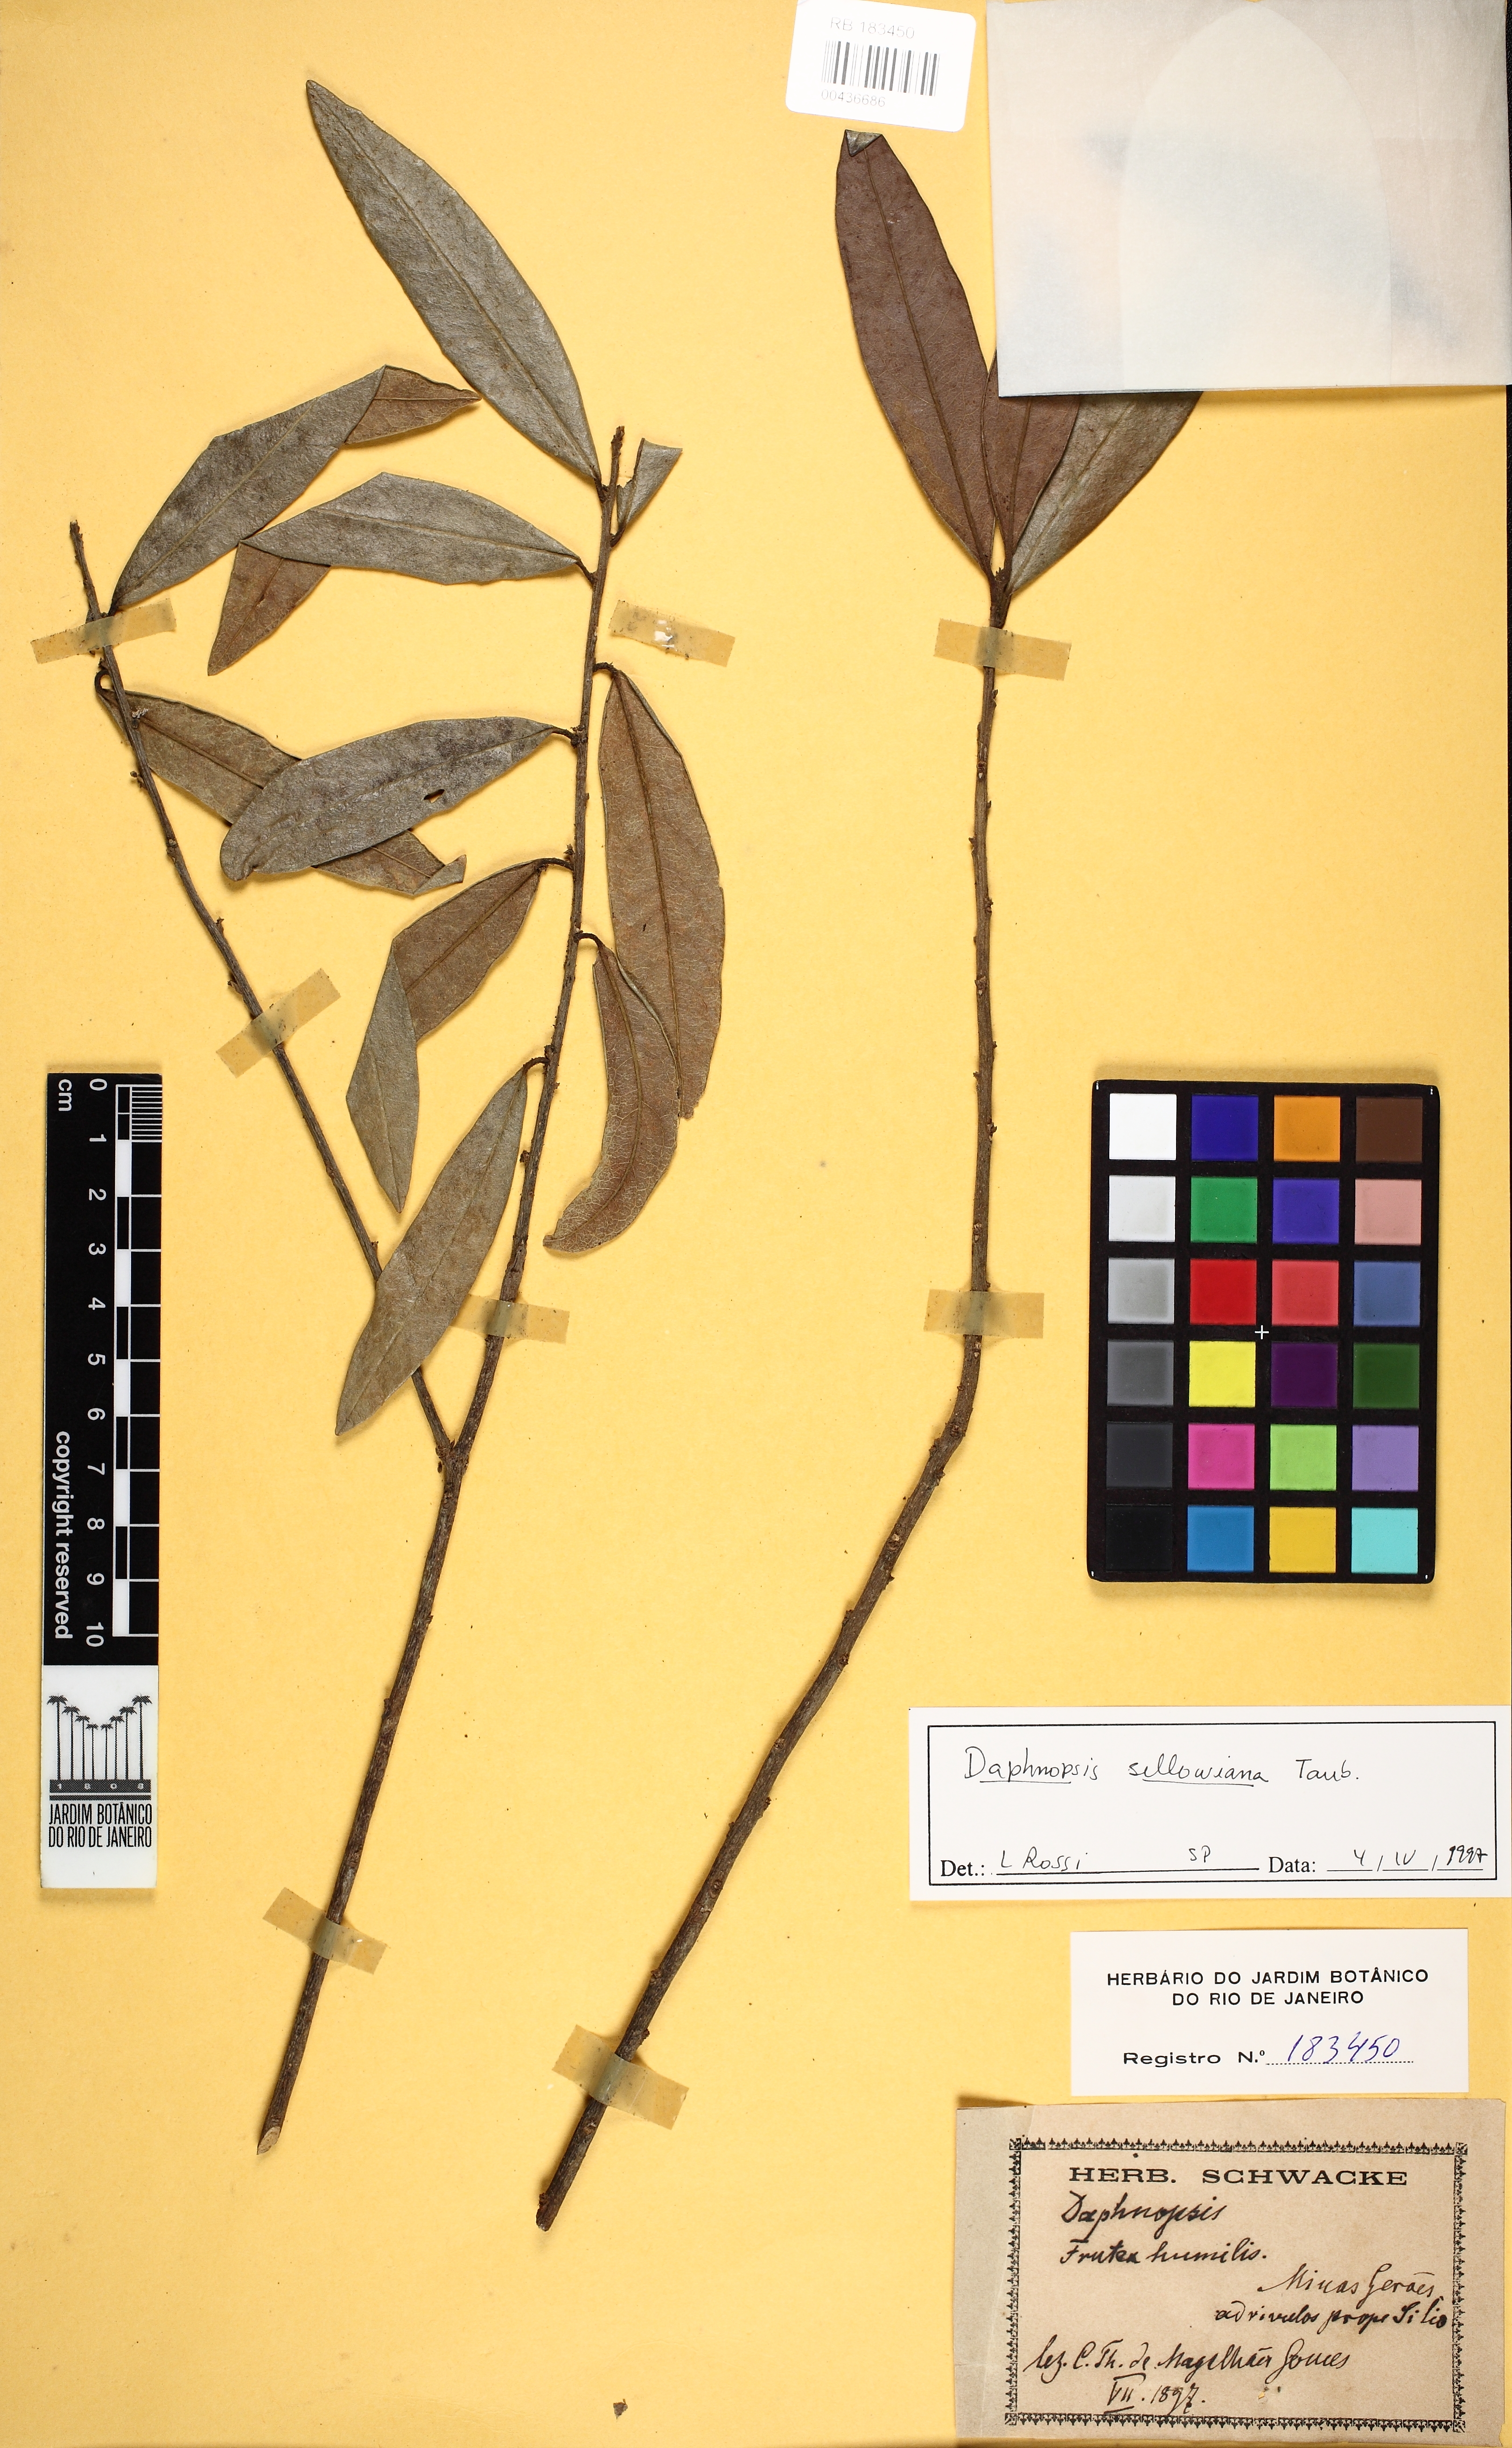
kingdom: Plantae
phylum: Tracheophyta
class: Magnoliopsida
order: Malvales
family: Thymelaeaceae
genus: Daphnopsis
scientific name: Daphnopsis sellowiana
